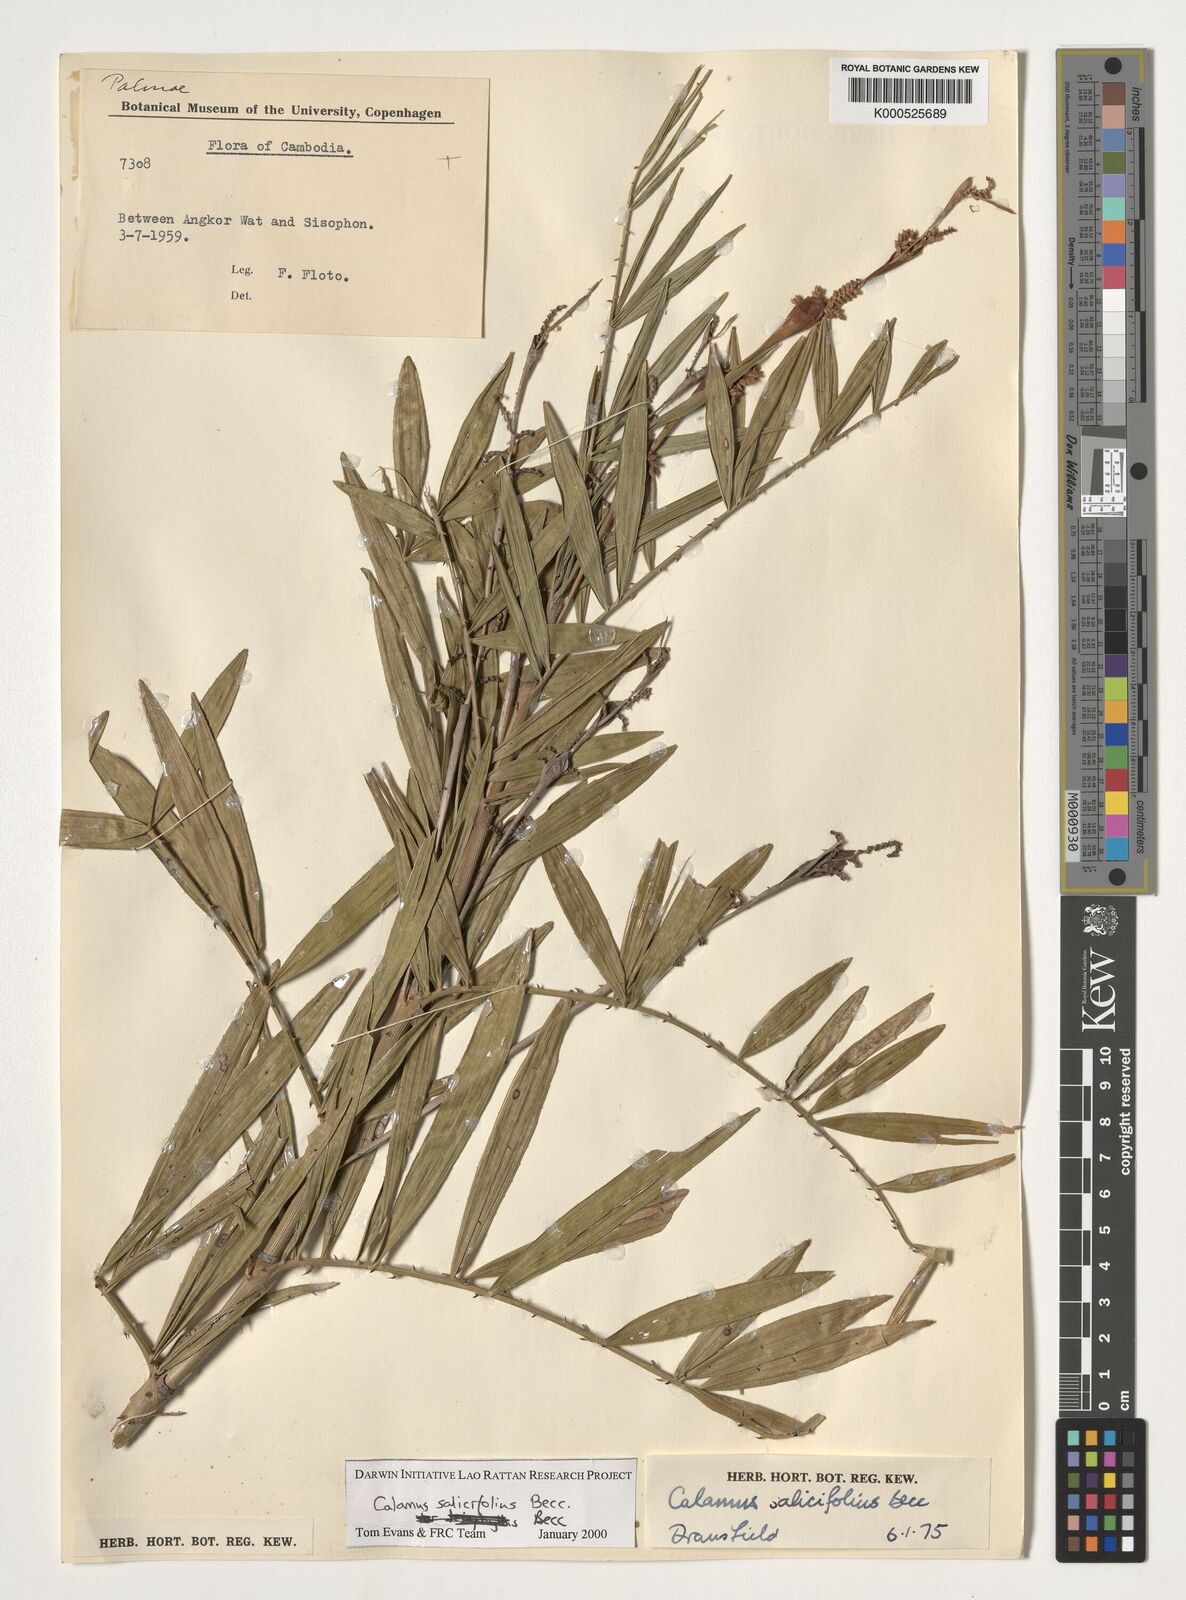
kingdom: Plantae
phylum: Tracheophyta
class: Liliopsida
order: Arecales
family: Arecaceae
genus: Calamus
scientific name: Calamus salicifolius
